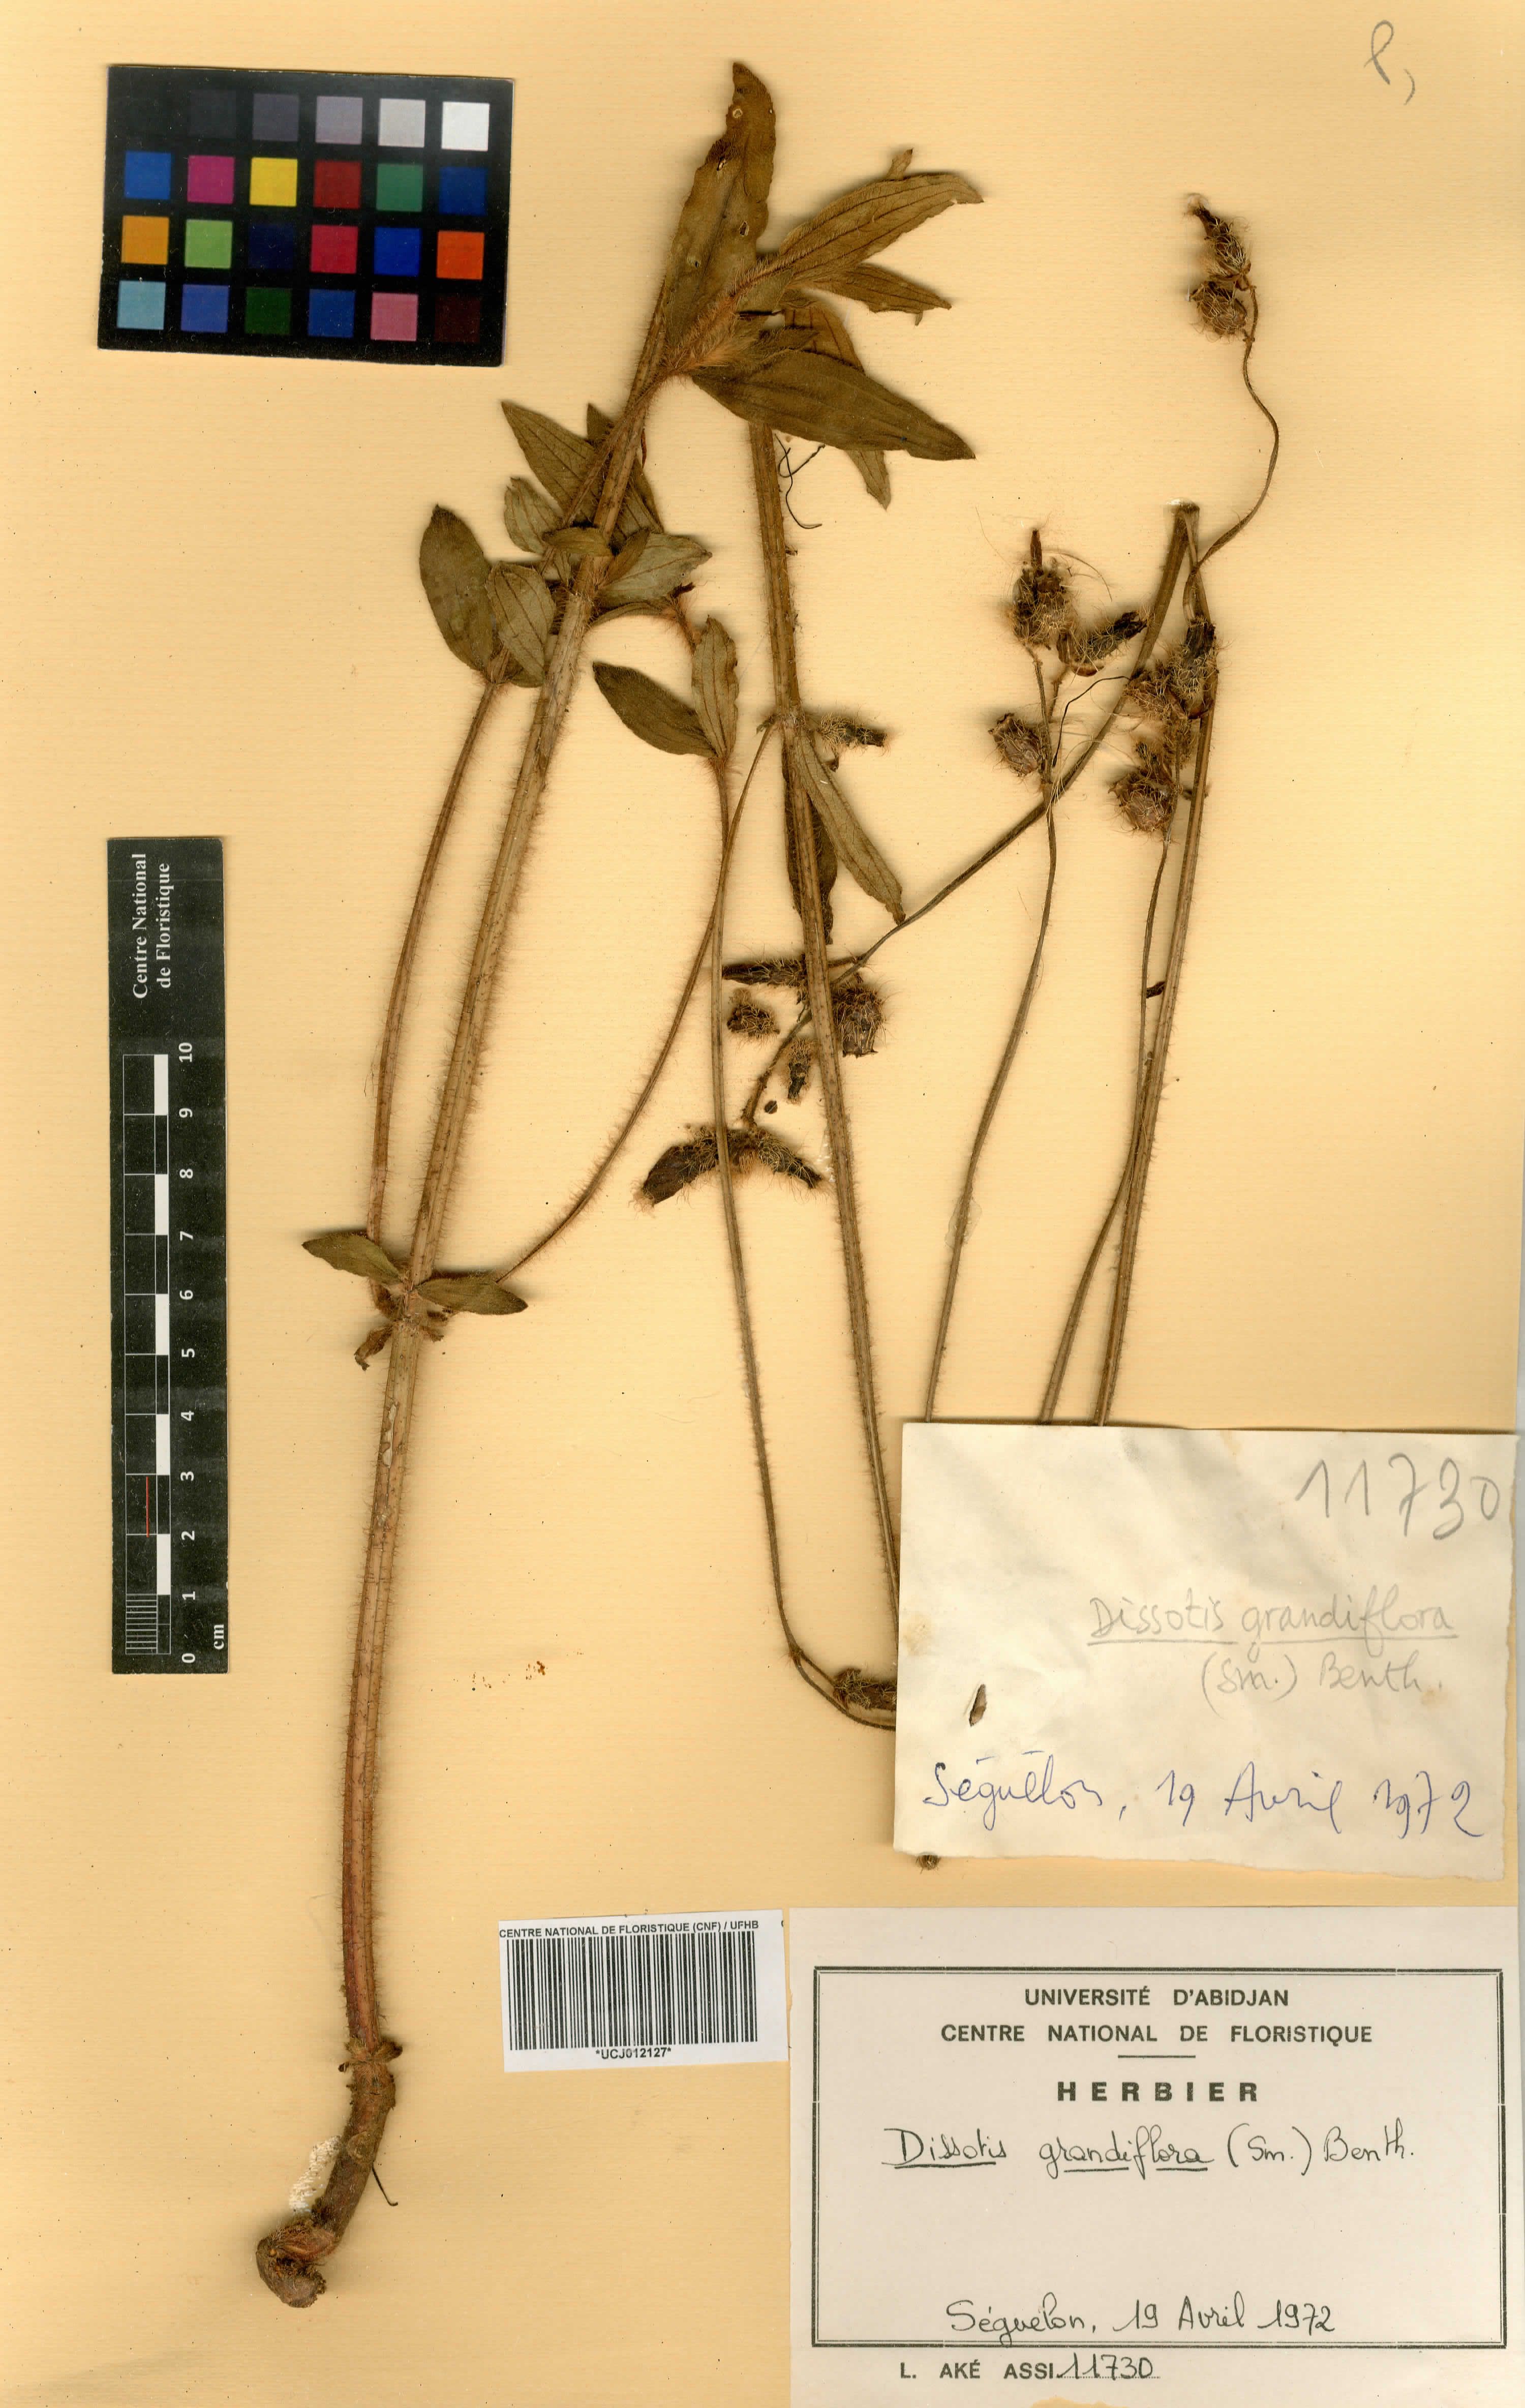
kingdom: Plantae
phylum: Tracheophyta
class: Magnoliopsida
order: Myrtales
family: Melastomataceae
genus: Dissotis
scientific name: Dissotis grandiflora
